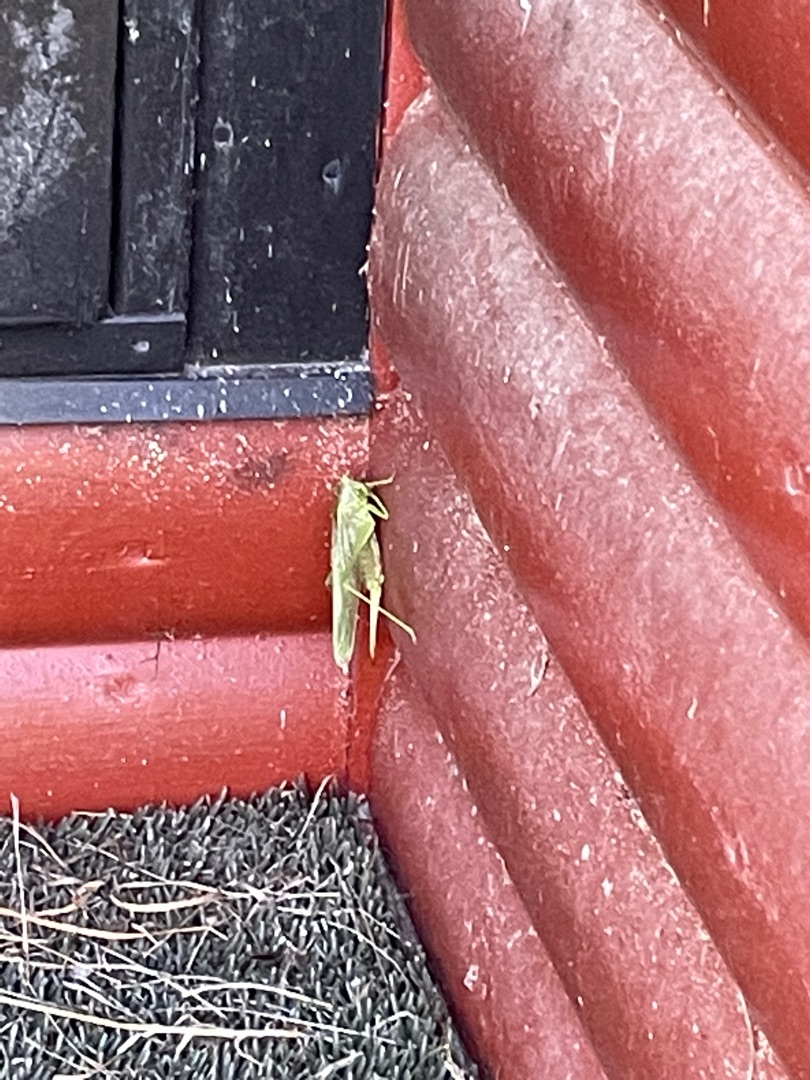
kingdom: Animalia
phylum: Arthropoda
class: Insecta
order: Orthoptera
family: Tettigoniidae
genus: Tettigonia
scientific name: Tettigonia viridissima
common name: Stor grøn løvgræshoppe
